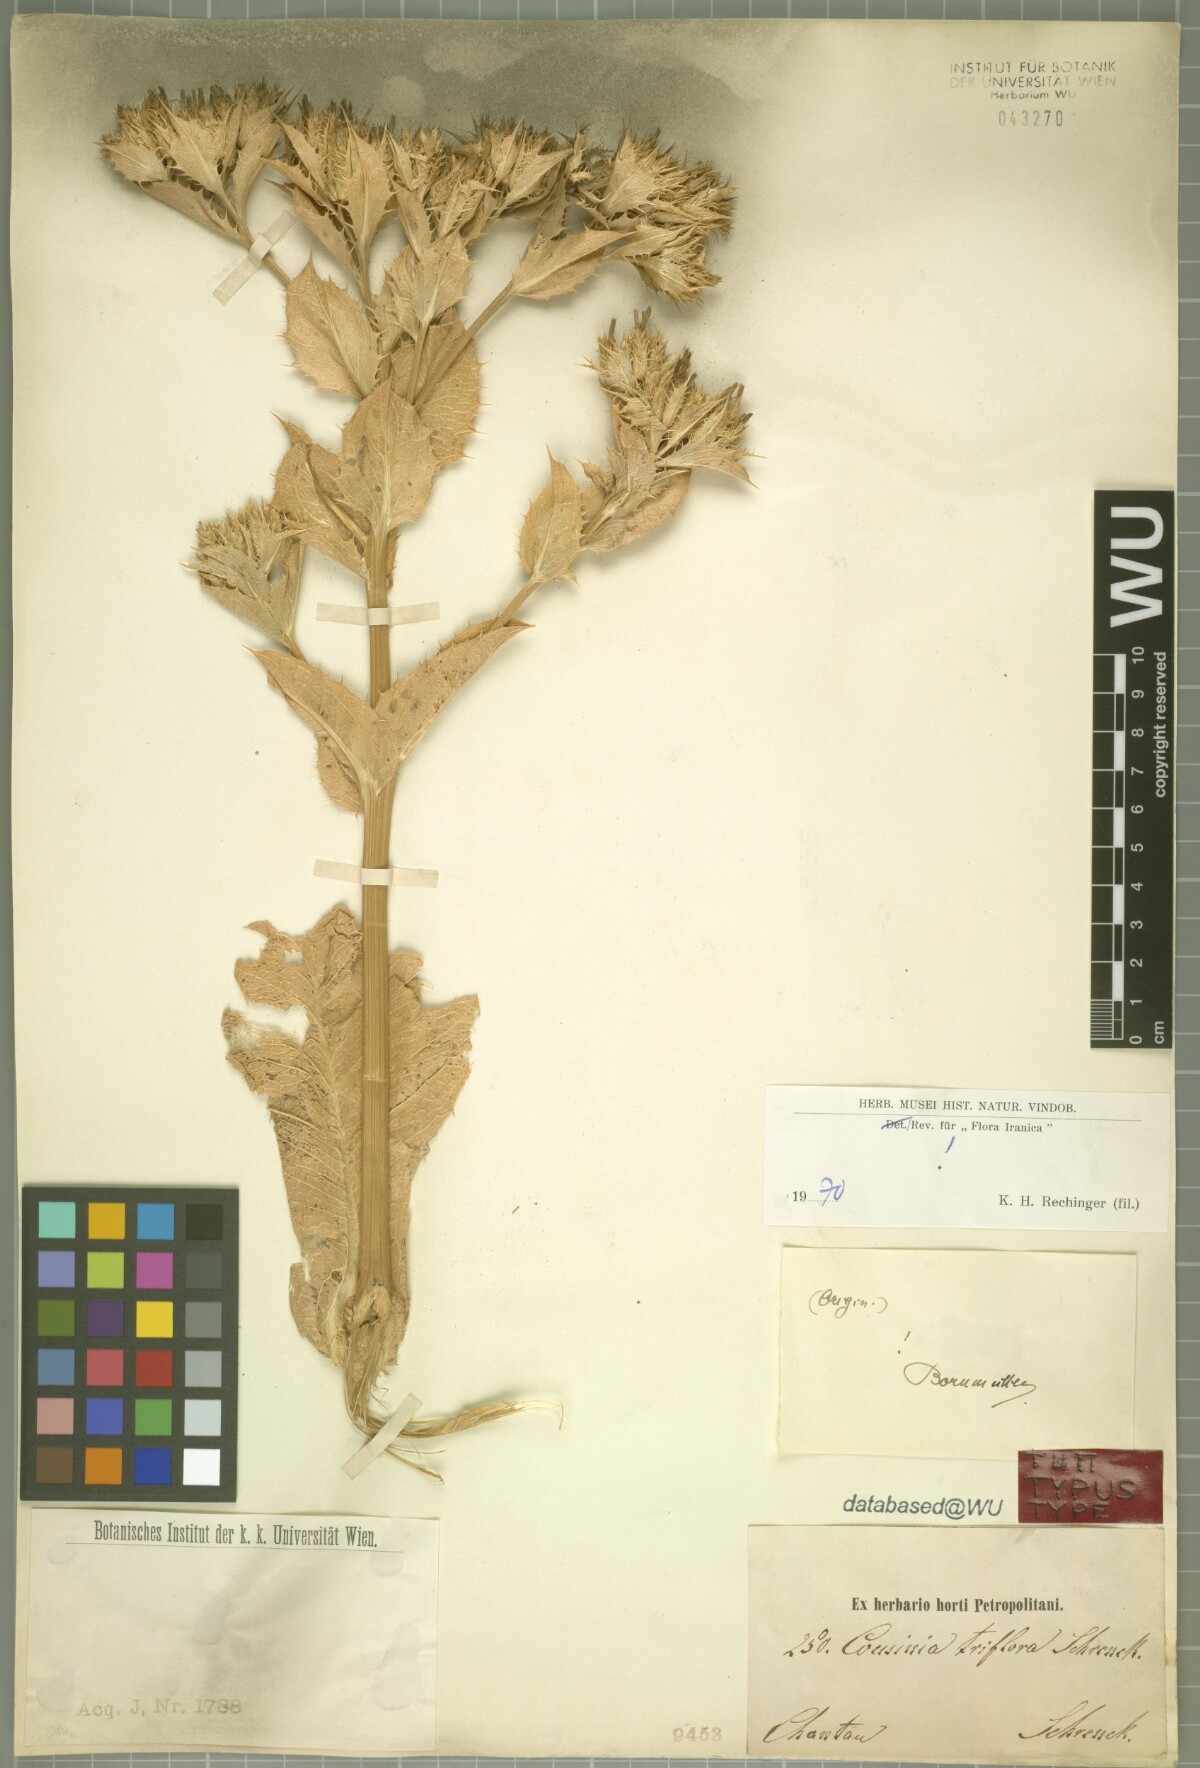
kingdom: Plantae
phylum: Tracheophyta
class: Magnoliopsida
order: Asterales
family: Asteraceae
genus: Arctium
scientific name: Arctium triflorum
